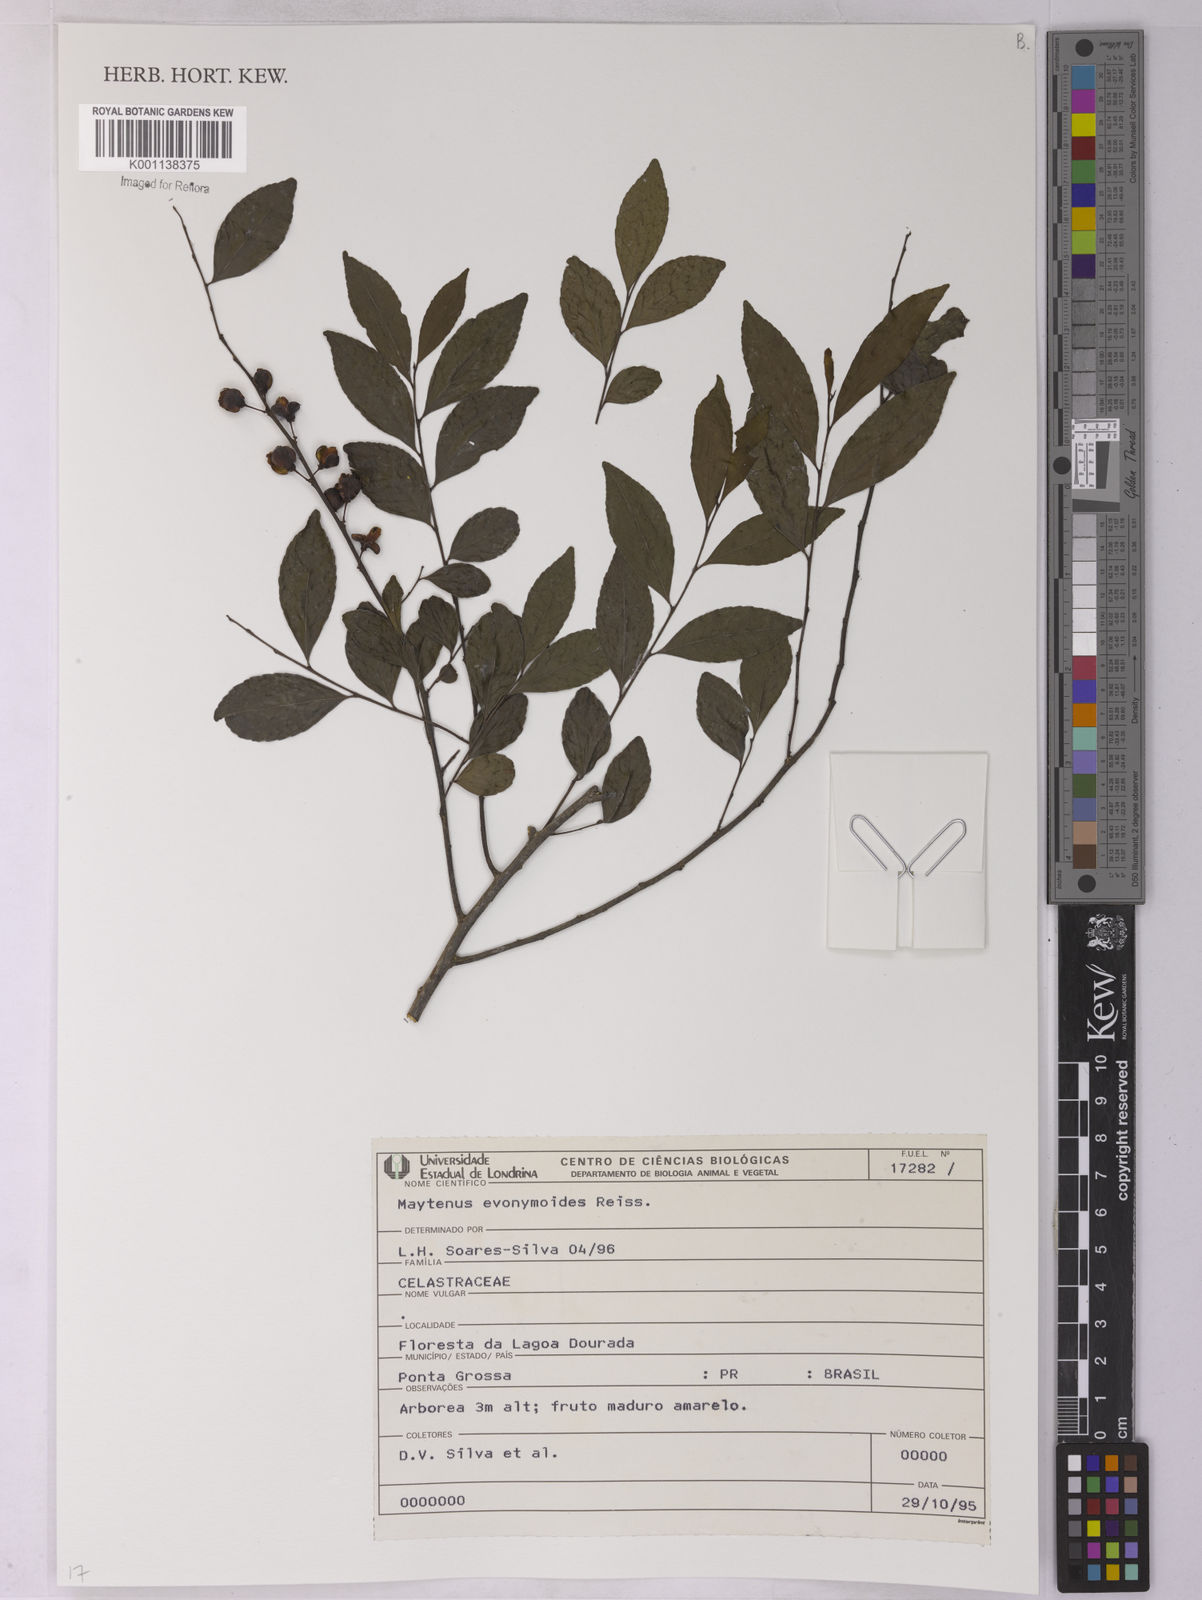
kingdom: Plantae
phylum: Tracheophyta
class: Magnoliopsida
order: Celastrales
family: Celastraceae
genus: Monteverdia
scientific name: Monteverdia evonymoides
